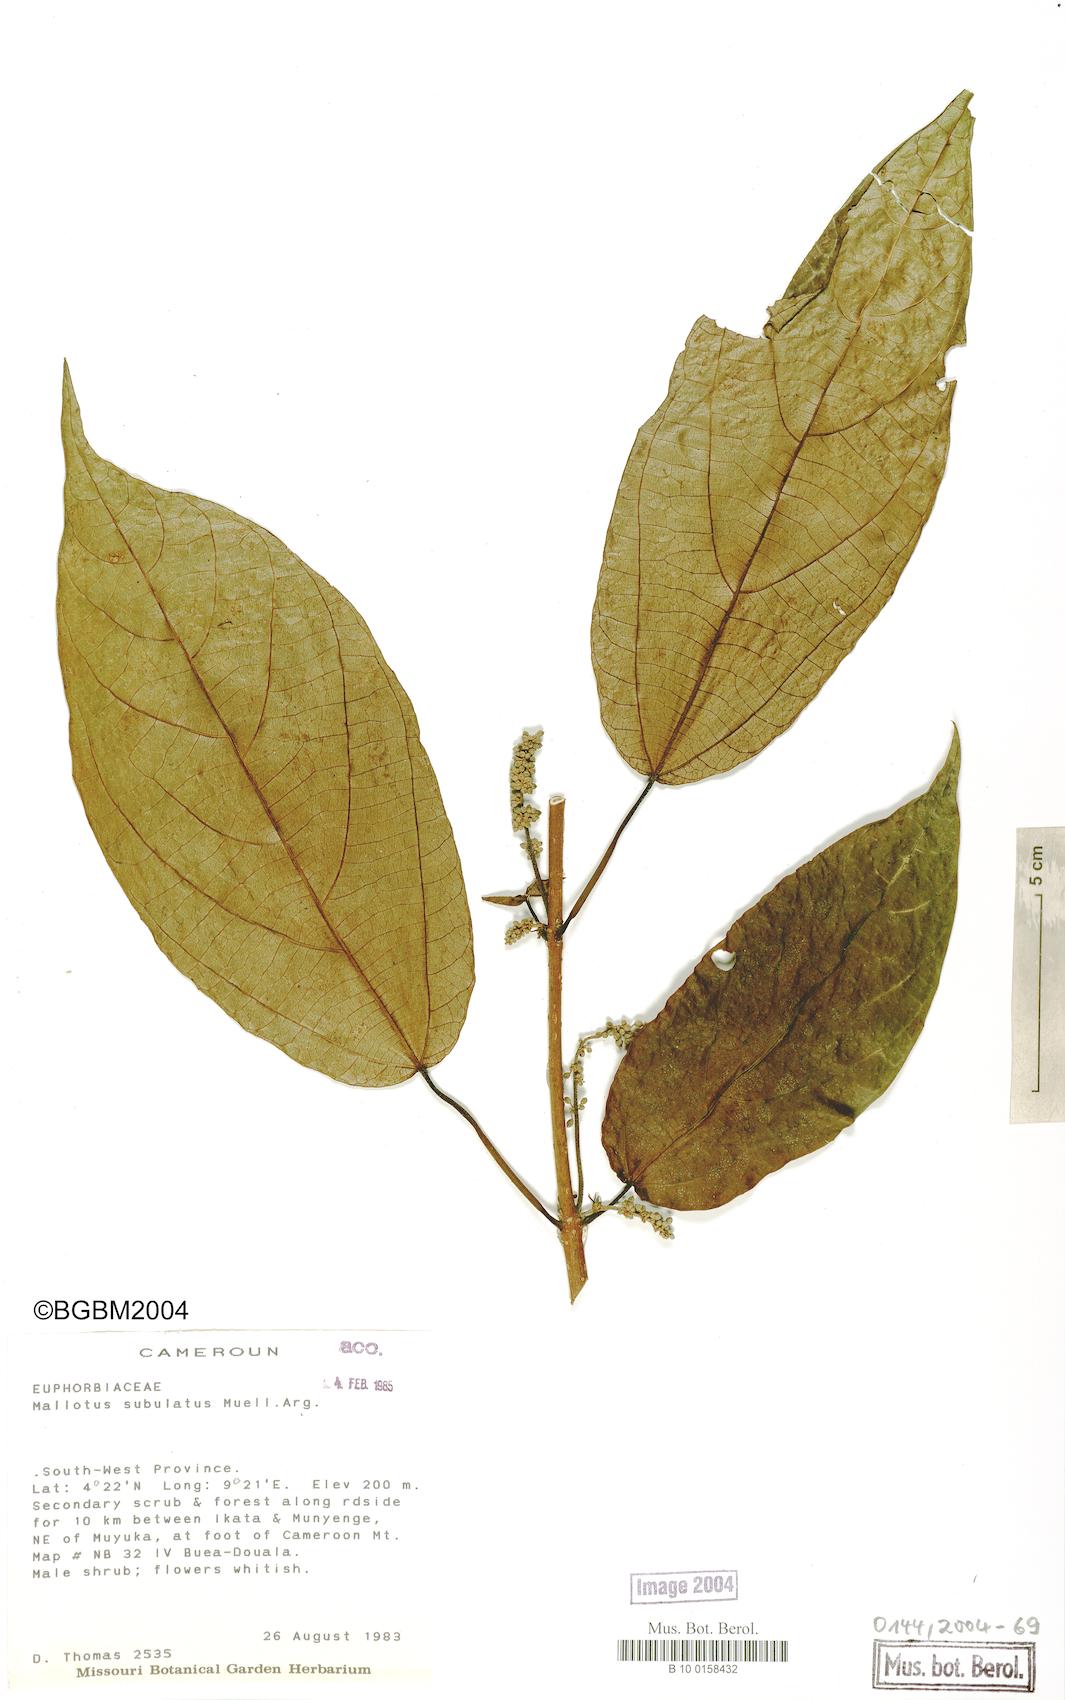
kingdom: Plantae
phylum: Tracheophyta
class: Magnoliopsida
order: Malpighiales
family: Euphorbiaceae
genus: Mallotus
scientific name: Mallotus subulatus
